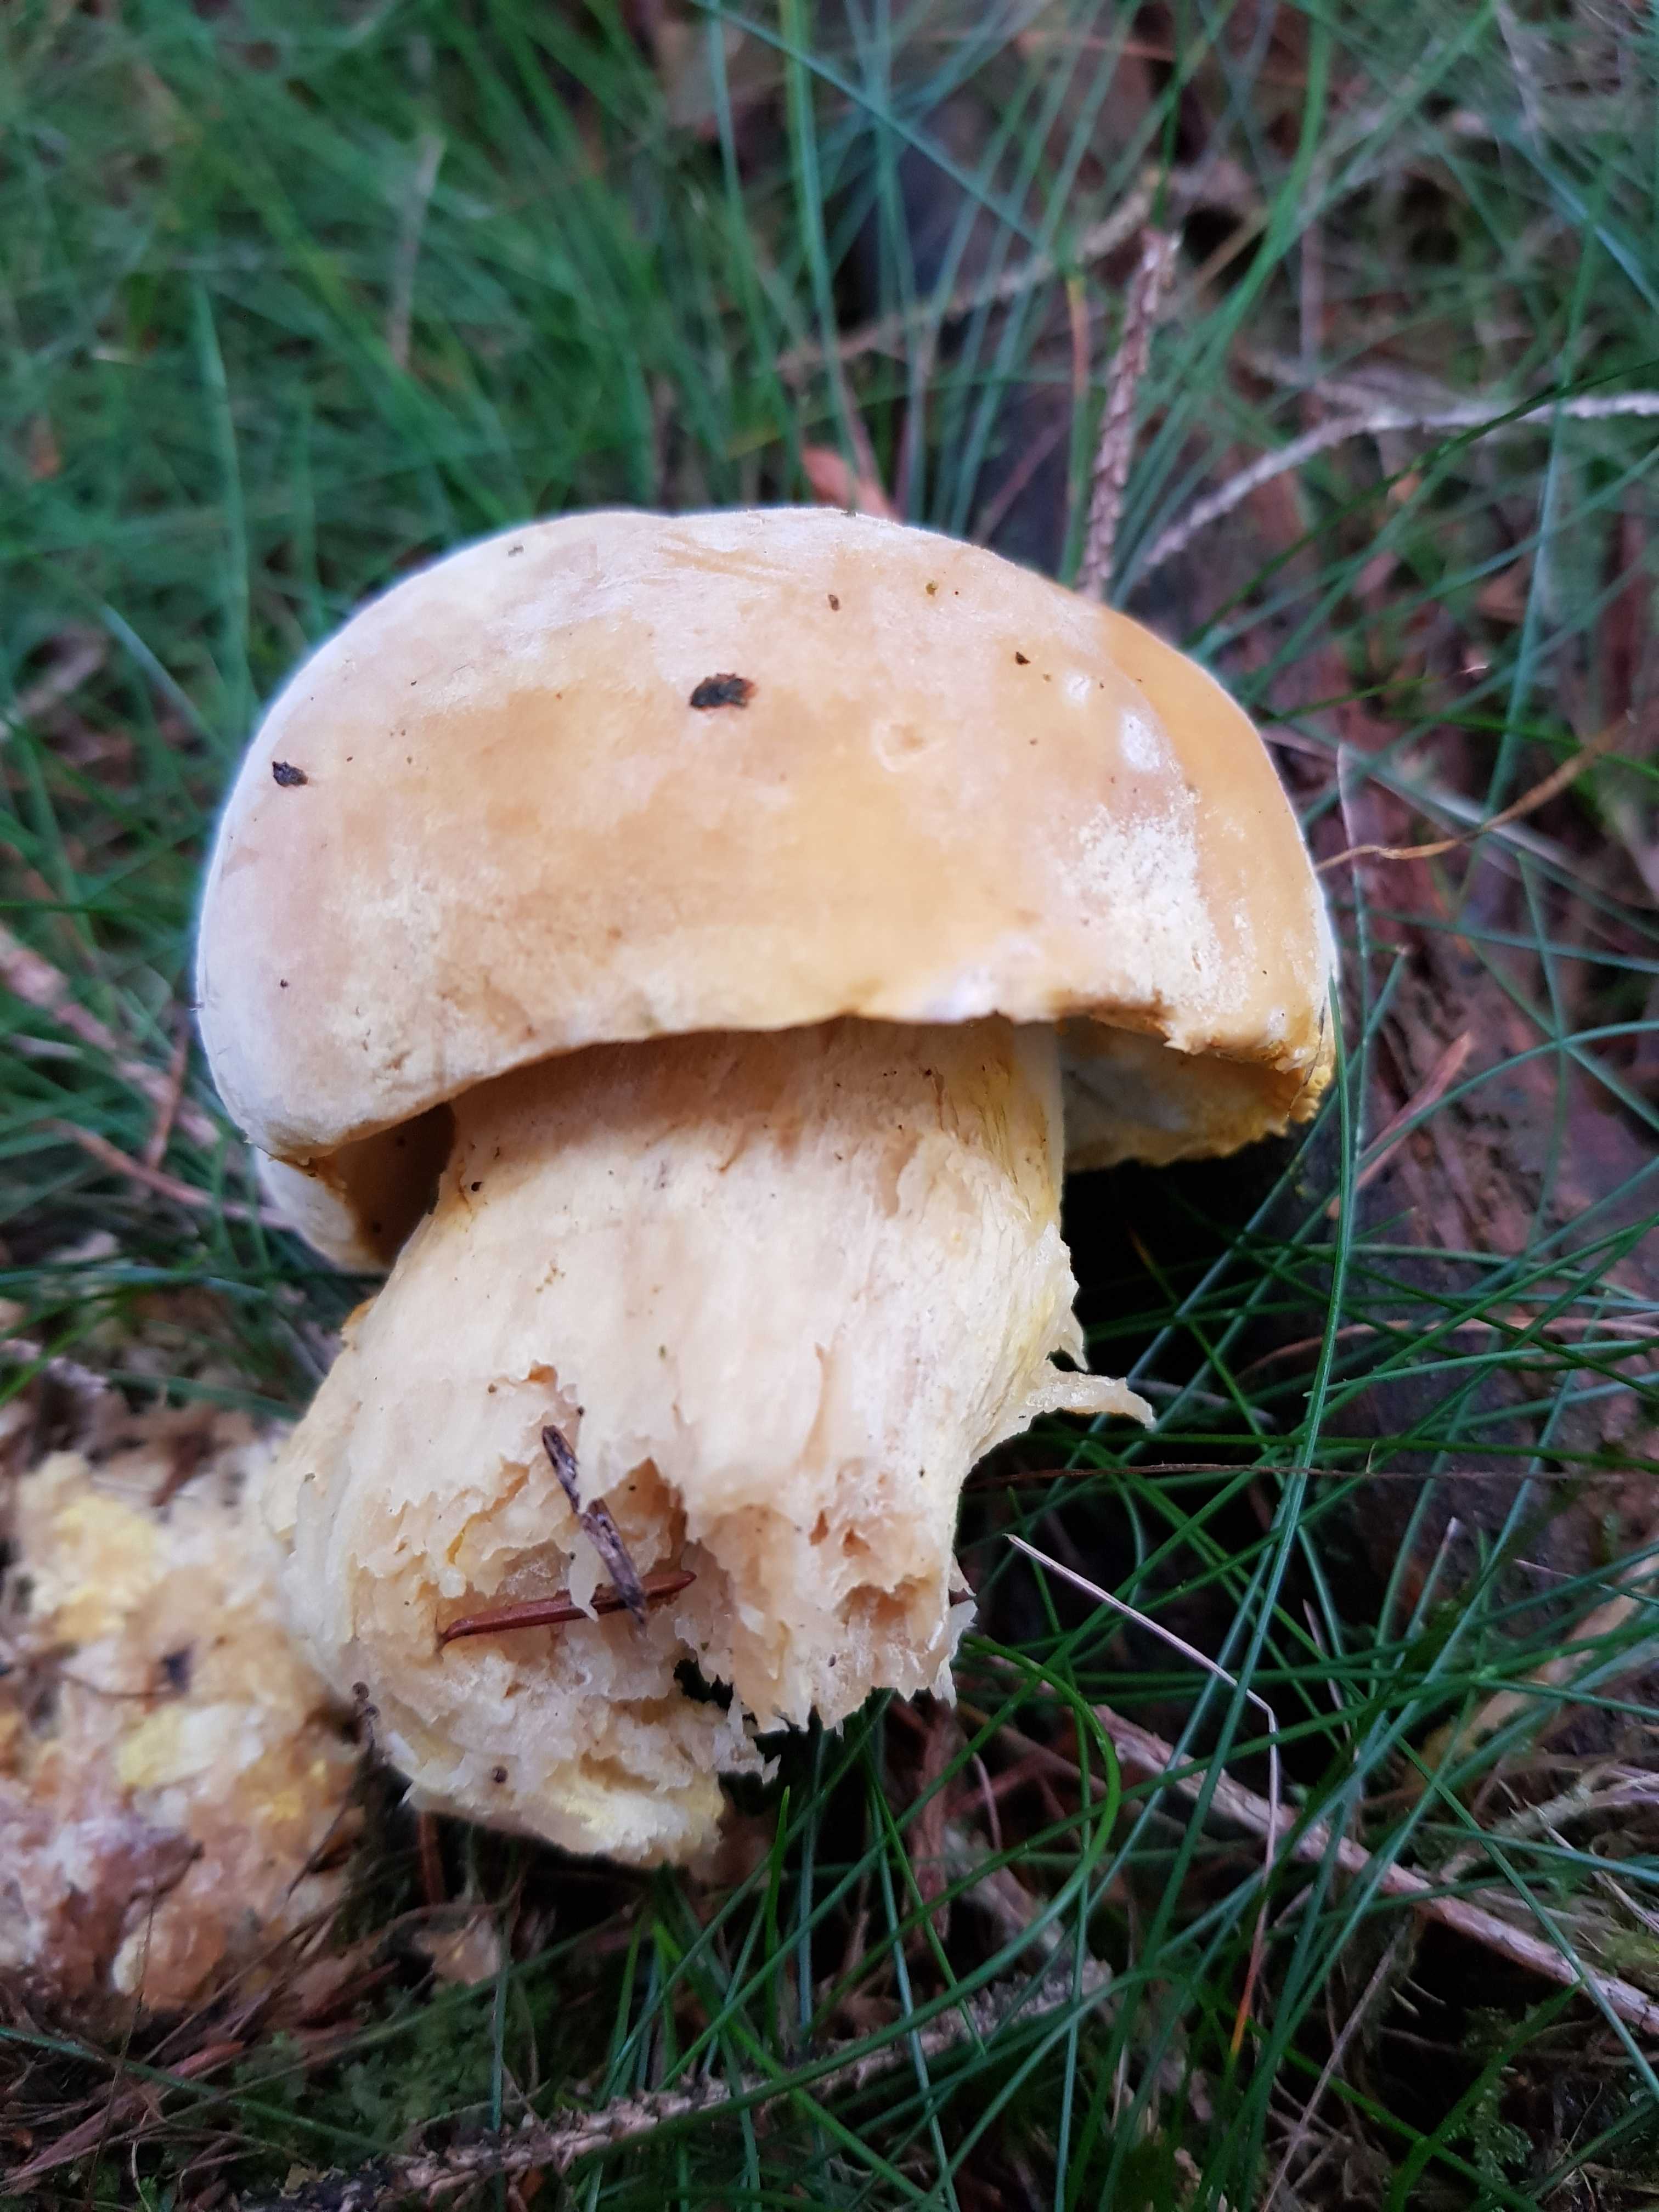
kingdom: Fungi
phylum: Ascomycota
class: Sordariomycetes
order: Hypocreales
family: Hypocreaceae
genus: Hypomyces
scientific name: Hypomyces chrysospermus
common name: gulskimmel-snylteskorpe
